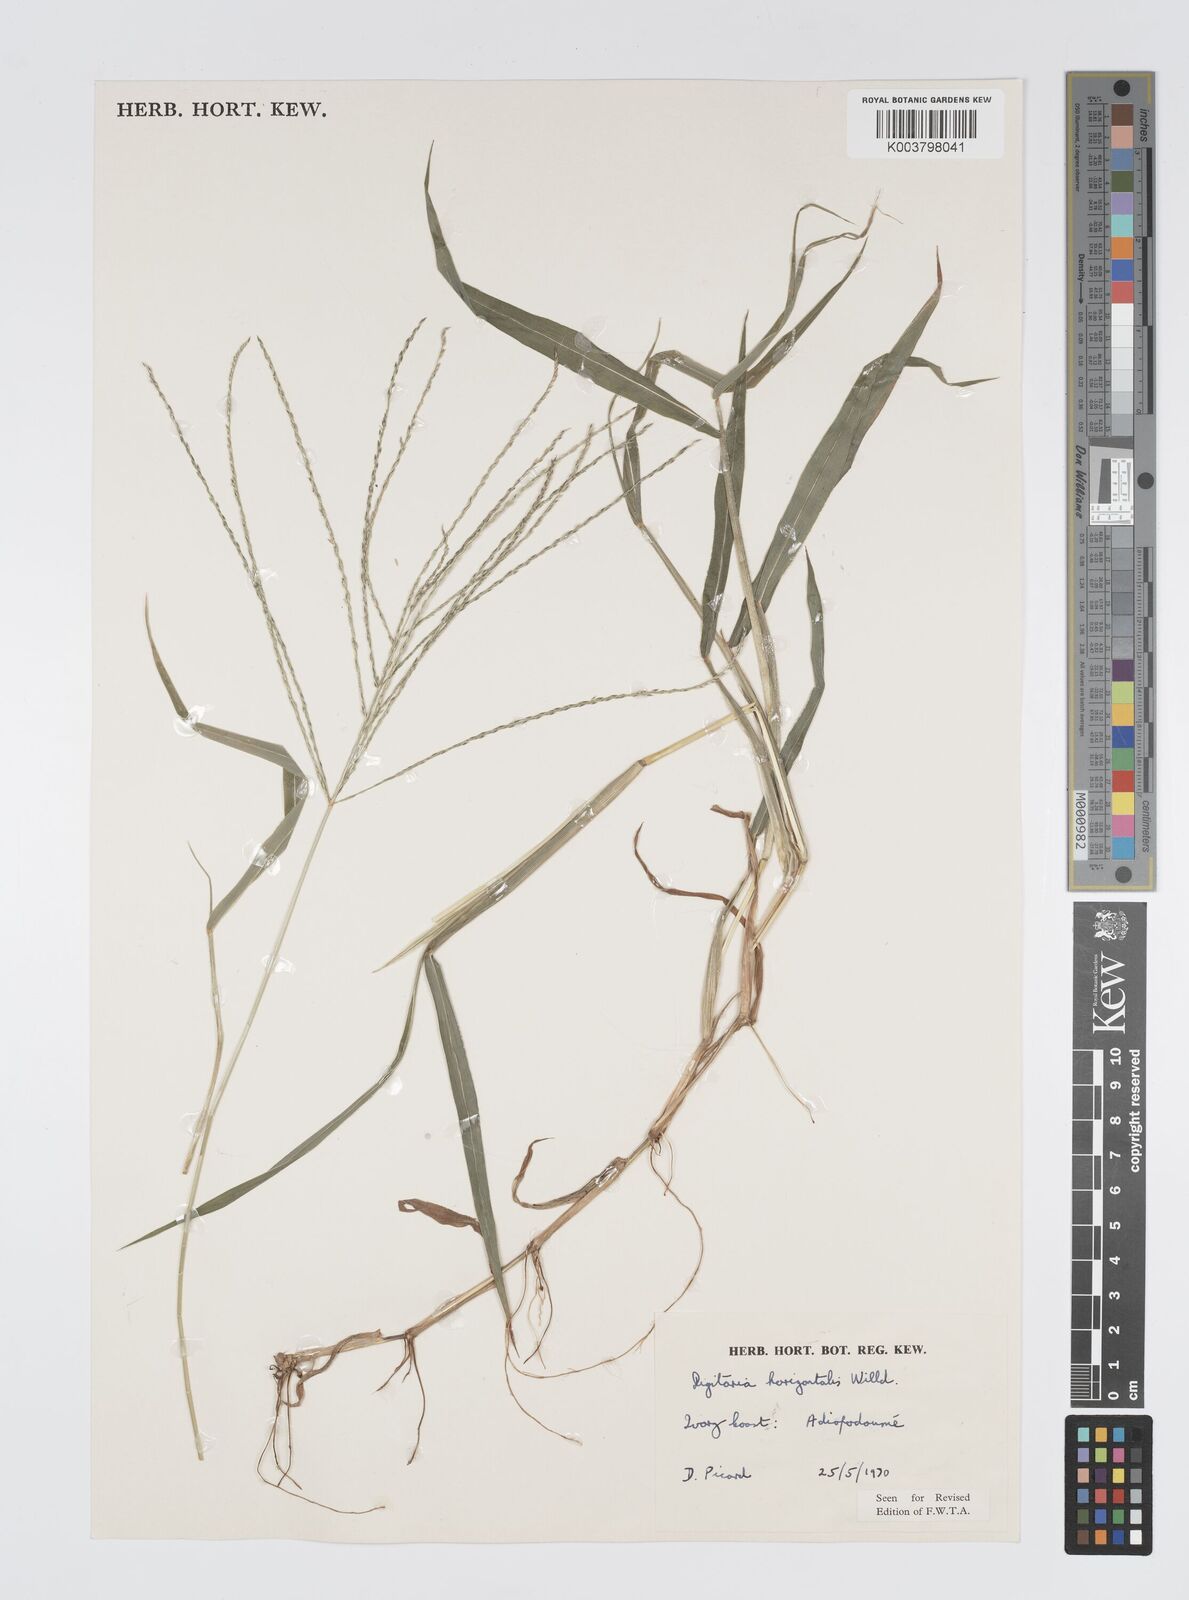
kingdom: Plantae
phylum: Tracheophyta
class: Liliopsida
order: Poales
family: Poaceae
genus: Digitaria
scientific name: Digitaria horizontalis
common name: Jamaican crabgrass
